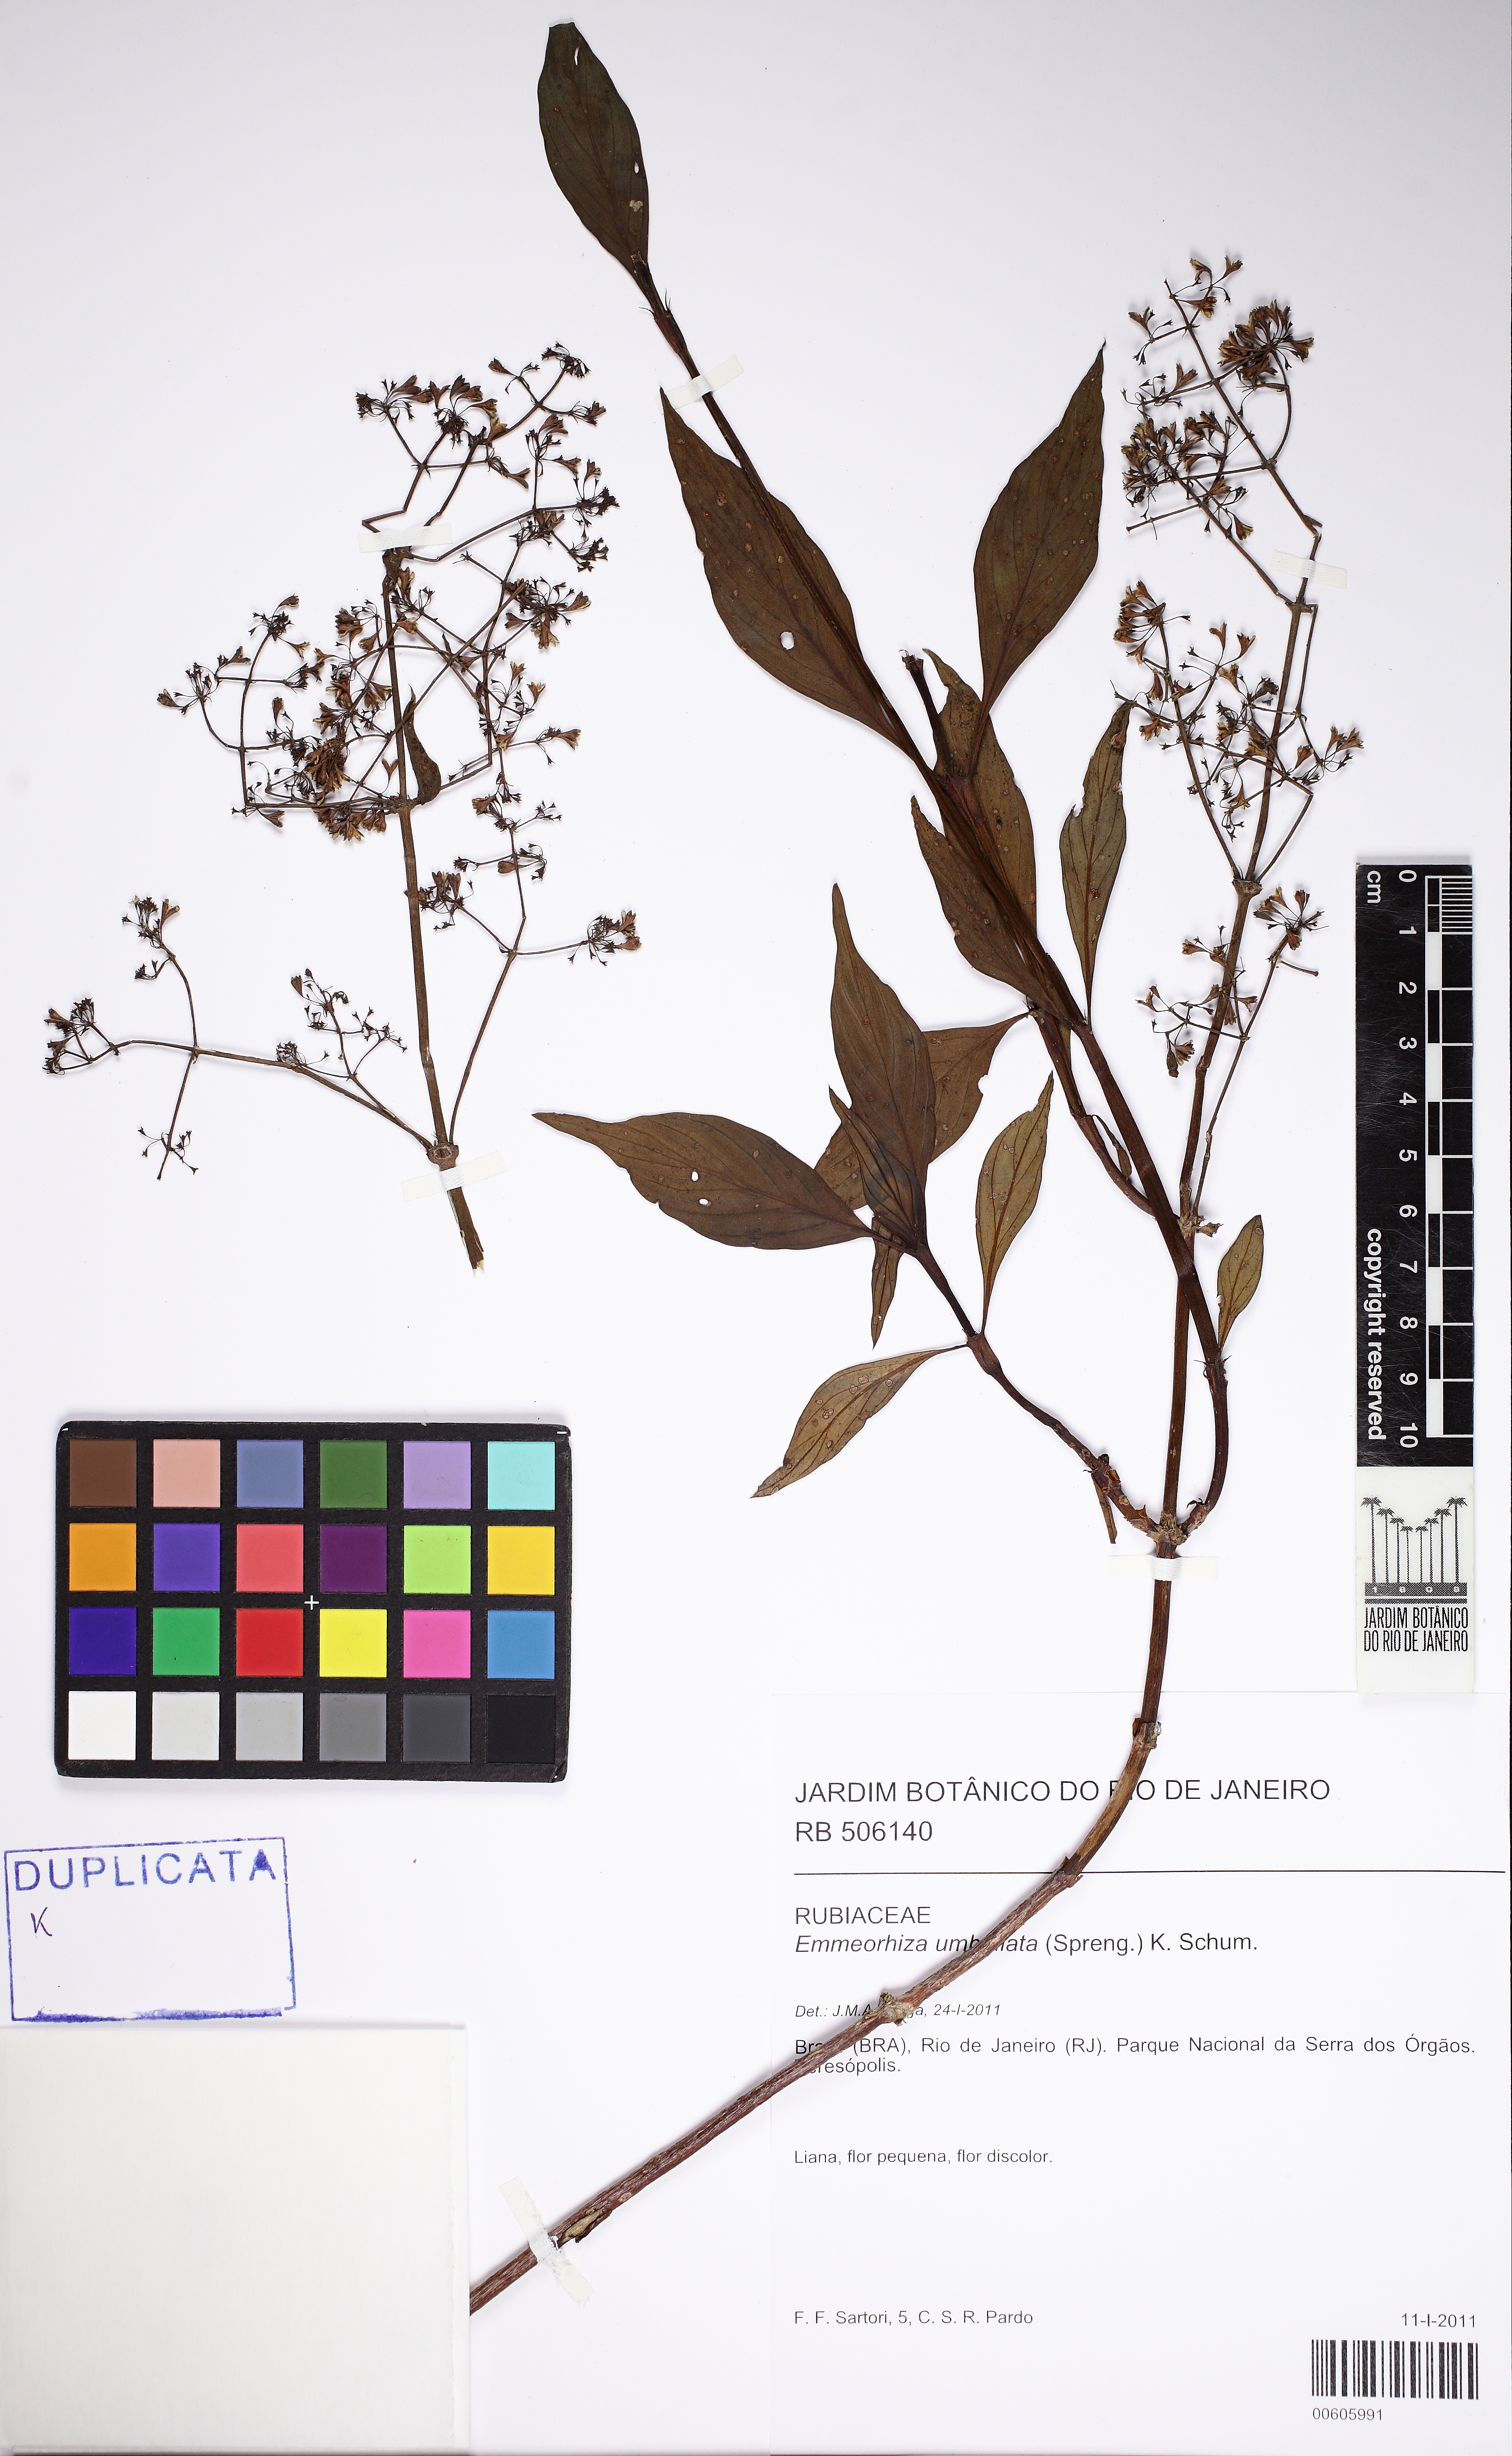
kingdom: Plantae
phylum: Tracheophyta
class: Magnoliopsida
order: Gentianales
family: Rubiaceae
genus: Emmeorhiza
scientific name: Emmeorhiza umbellata
